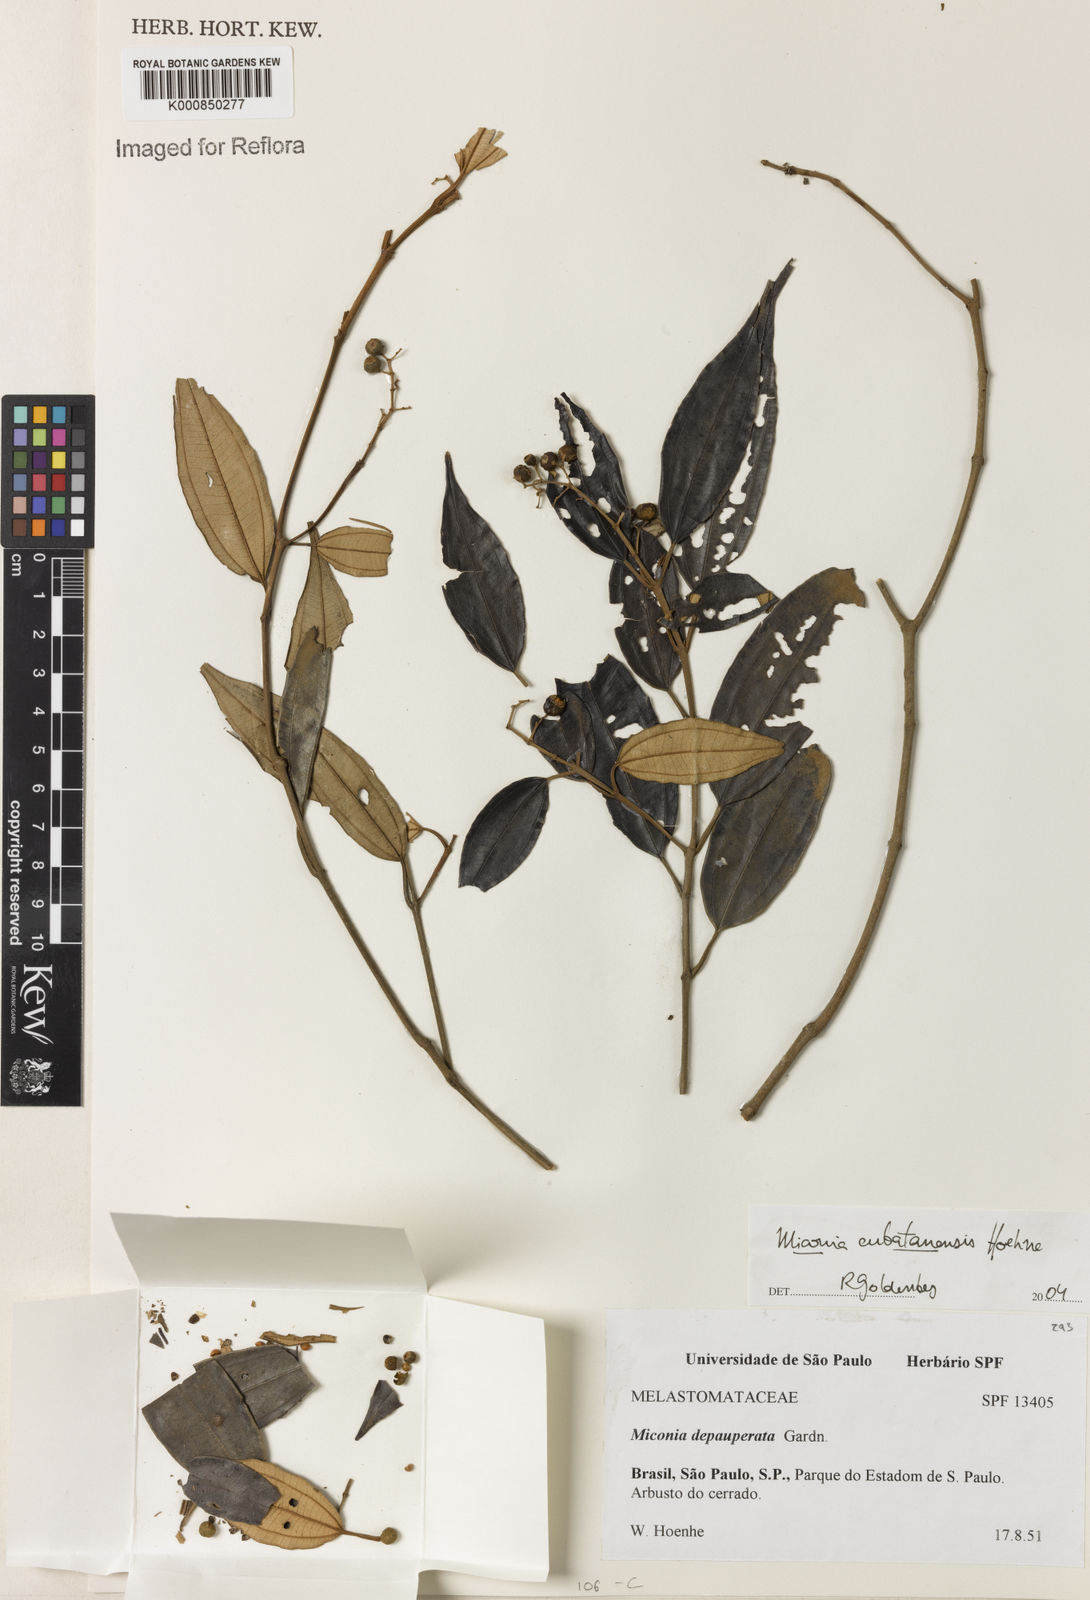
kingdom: Plantae
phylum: Tracheophyta
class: Magnoliopsida
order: Myrtales
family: Melastomataceae
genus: Miconia
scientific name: Miconia cubatanensis
